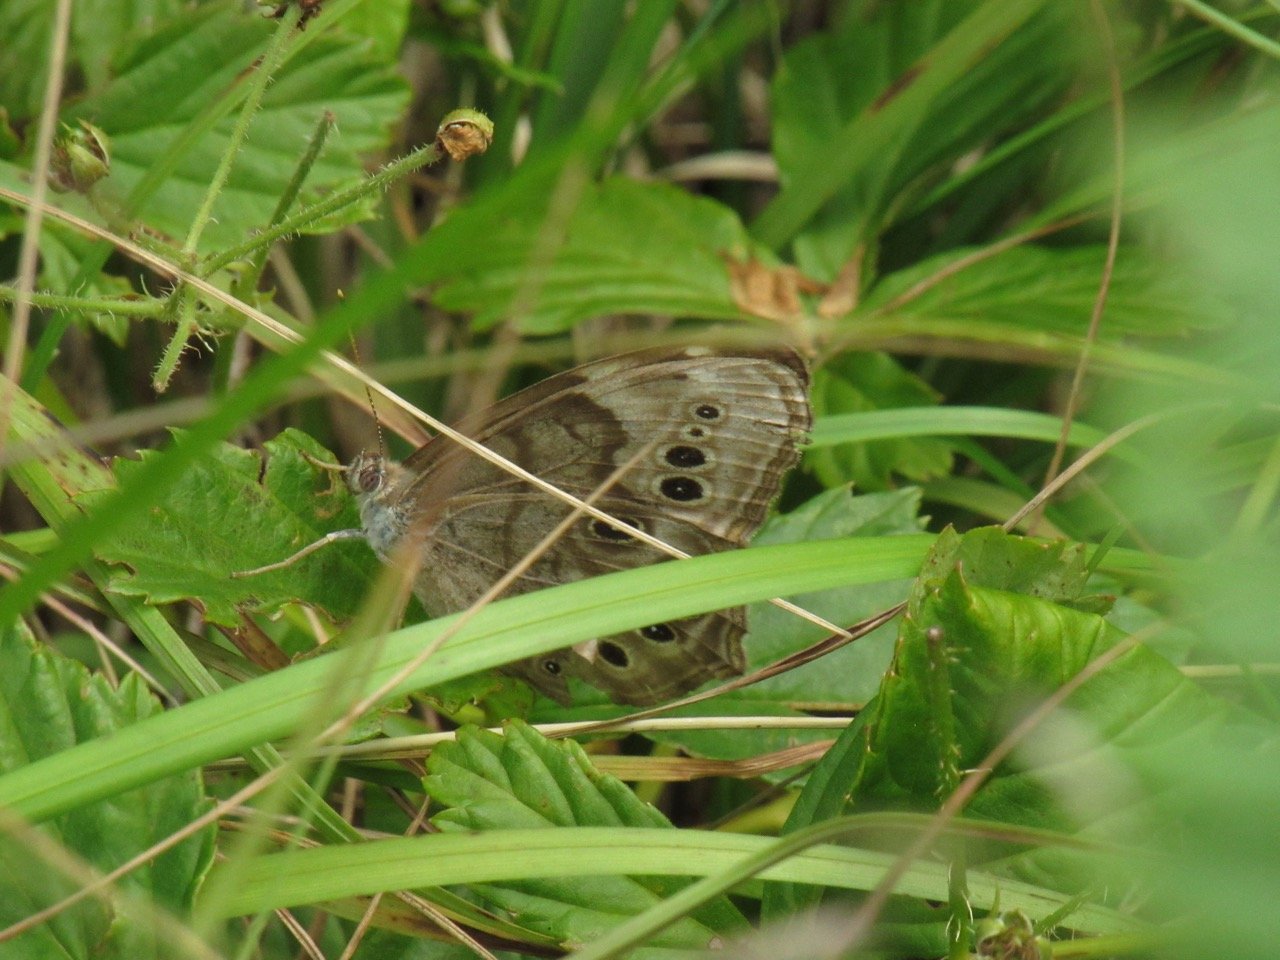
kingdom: Animalia
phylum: Arthropoda
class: Insecta
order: Lepidoptera
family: Nymphalidae
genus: Lethe
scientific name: Lethe anthedon
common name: Northern Pearly-Eye
